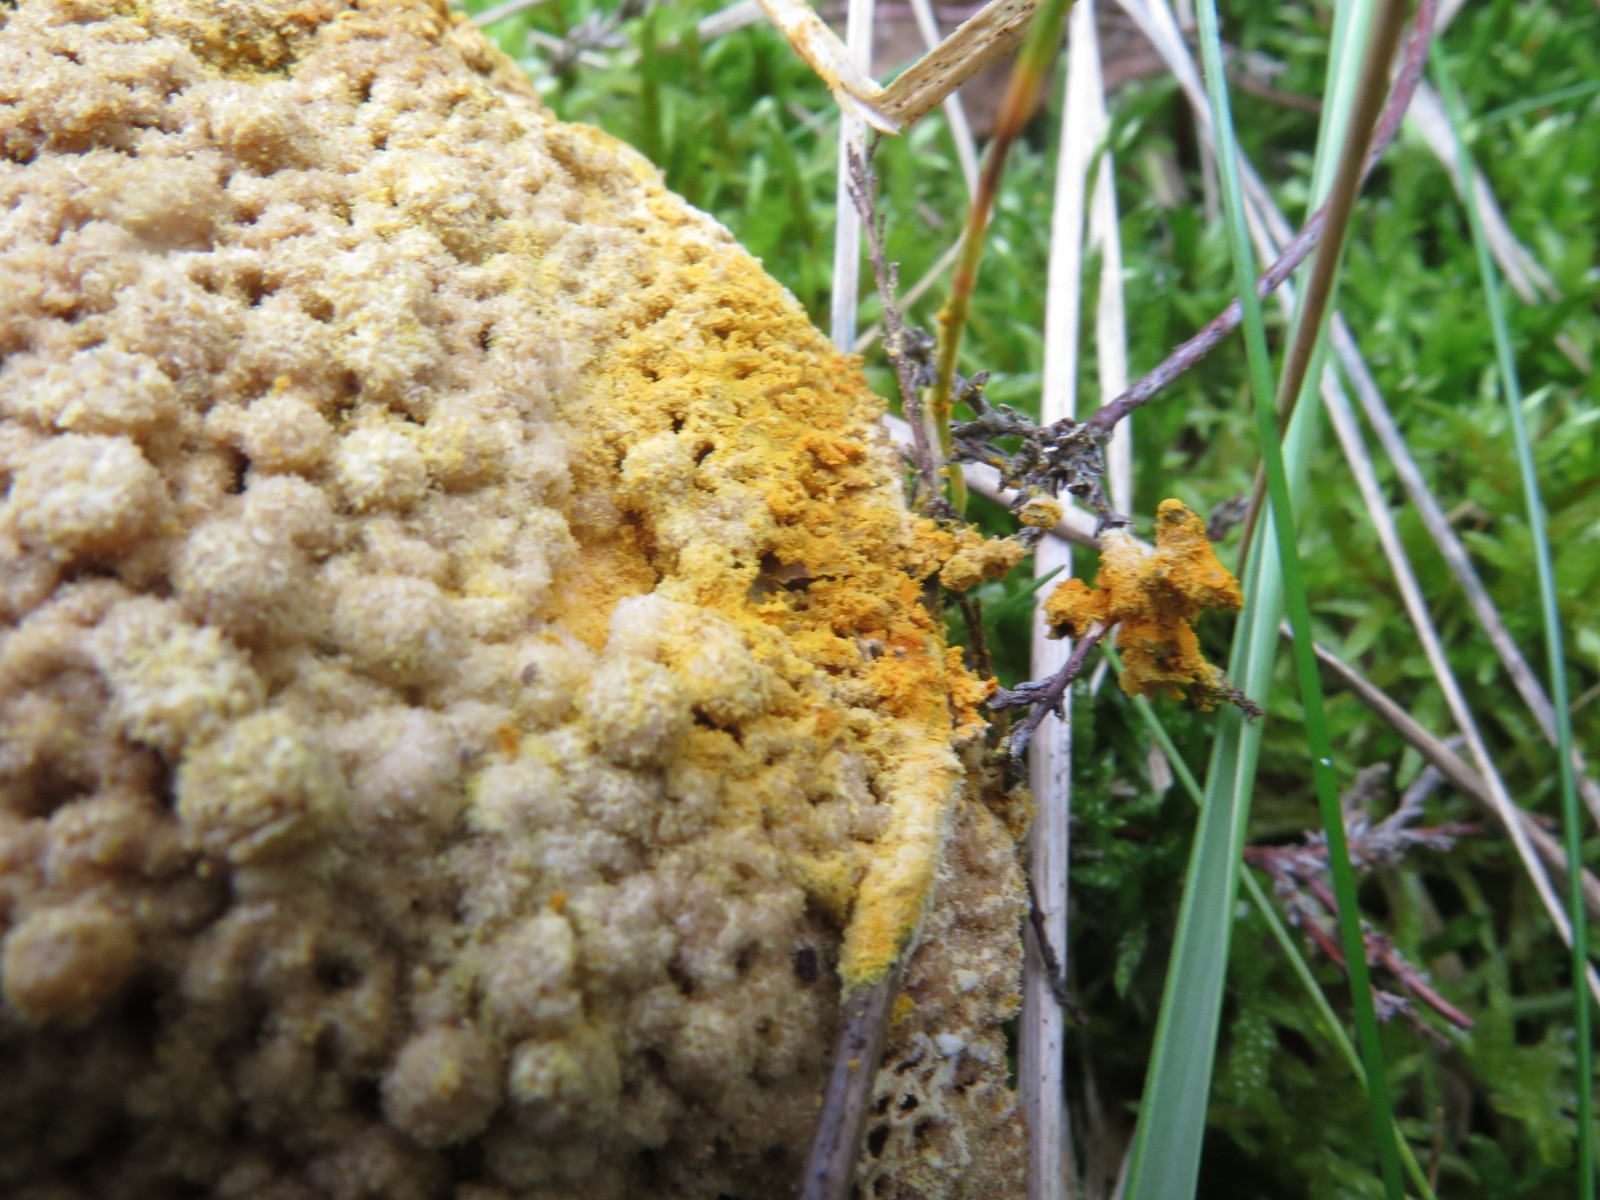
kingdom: Fungi
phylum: Ascomycota
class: Sordariomycetes
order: Hypocreales
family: Hypocreaceae
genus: Hypomyces
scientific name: Hypomyces
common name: snylteskorpe
